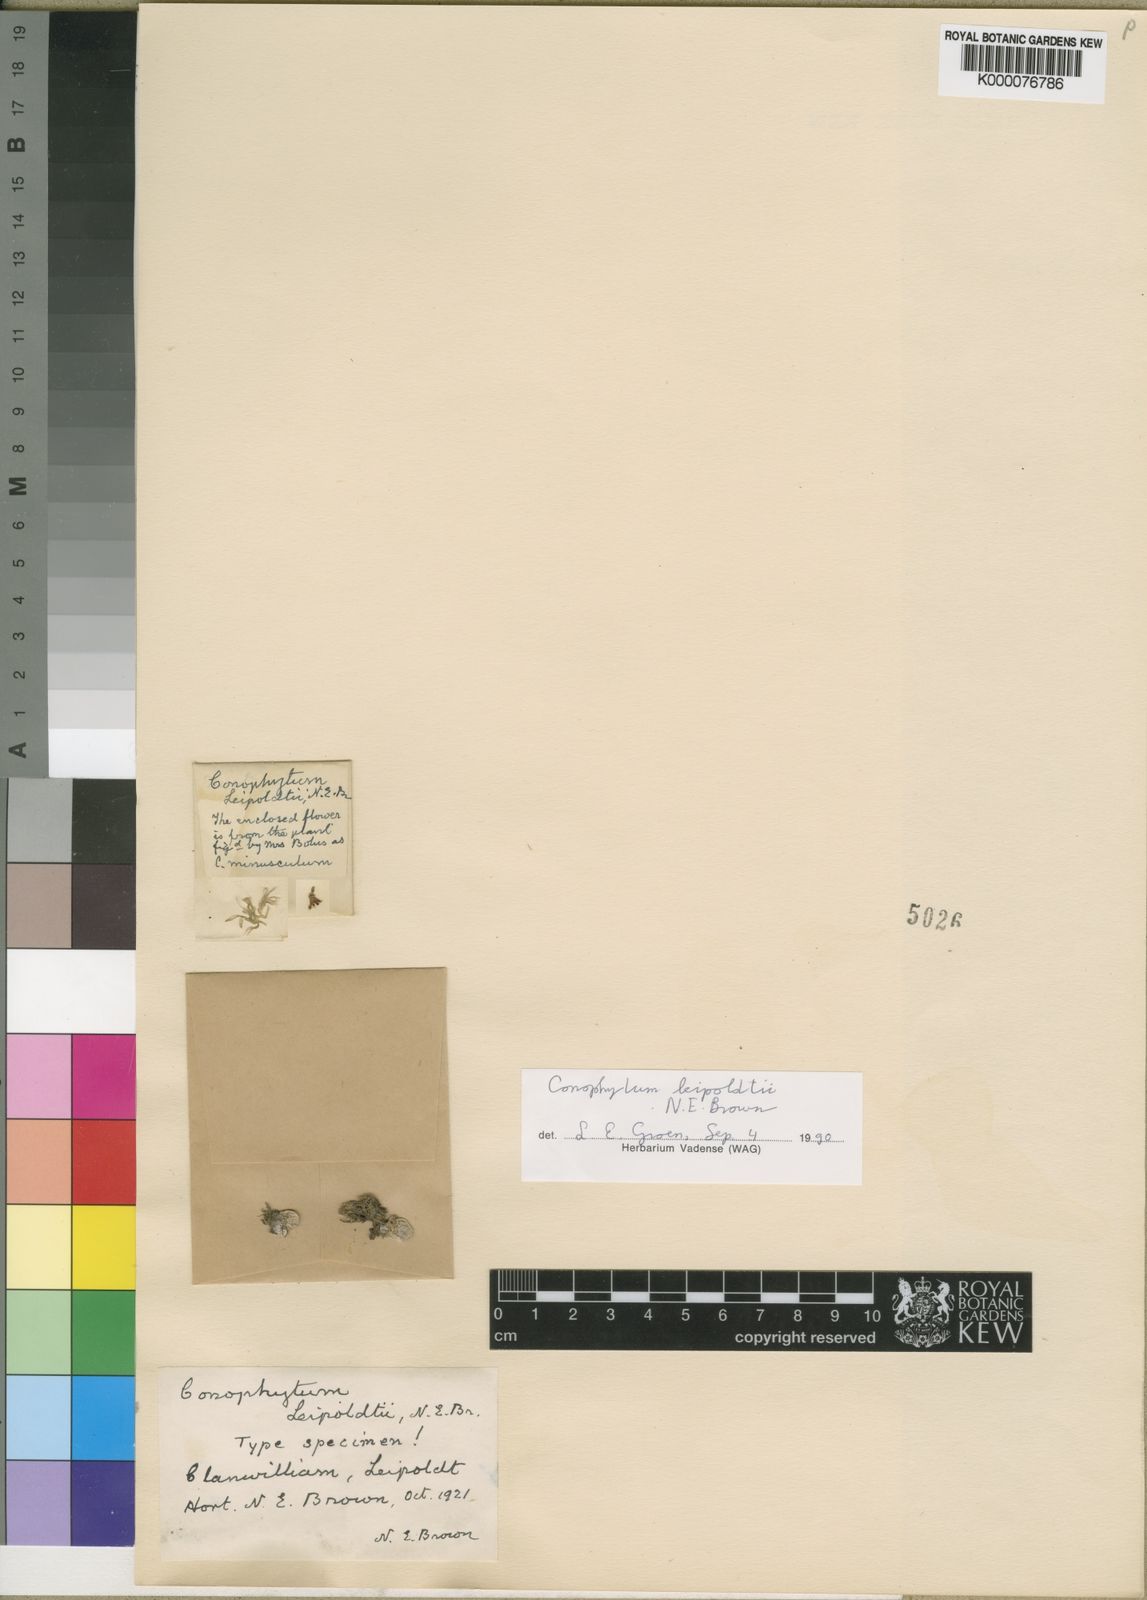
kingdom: Plantae
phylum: Tracheophyta
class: Magnoliopsida
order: Caryophyllales
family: Aizoaceae
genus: Conophytum
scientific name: Conophytum minusculum
